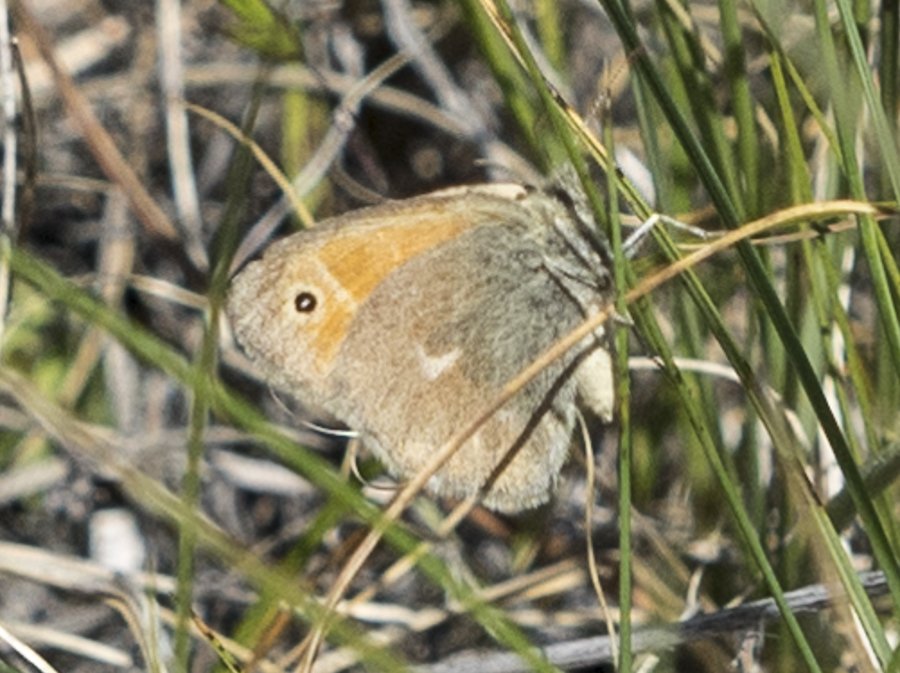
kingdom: Animalia
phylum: Arthropoda
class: Insecta
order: Lepidoptera
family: Nymphalidae
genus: Coenonympha
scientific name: Coenonympha tullia
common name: Large Heath
